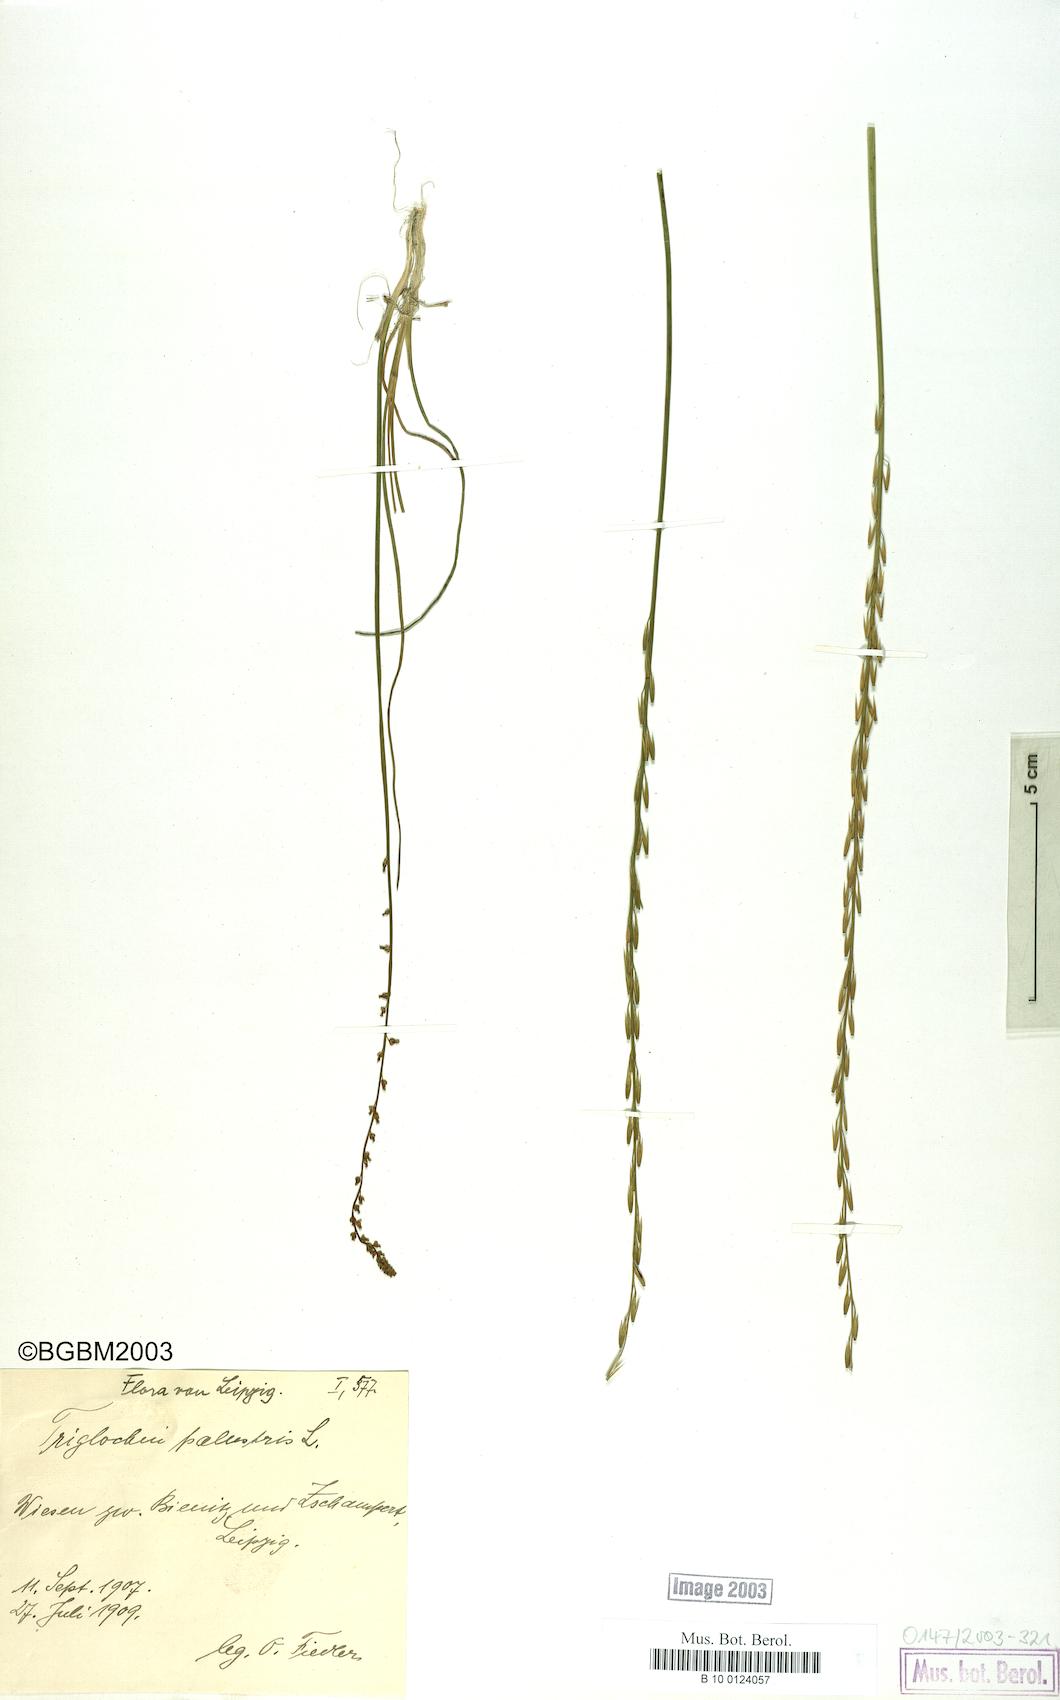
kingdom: Plantae
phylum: Tracheophyta
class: Liliopsida
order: Alismatales
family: Juncaginaceae
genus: Triglochin
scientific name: Triglochin palustris
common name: Marsh arrowgrass
